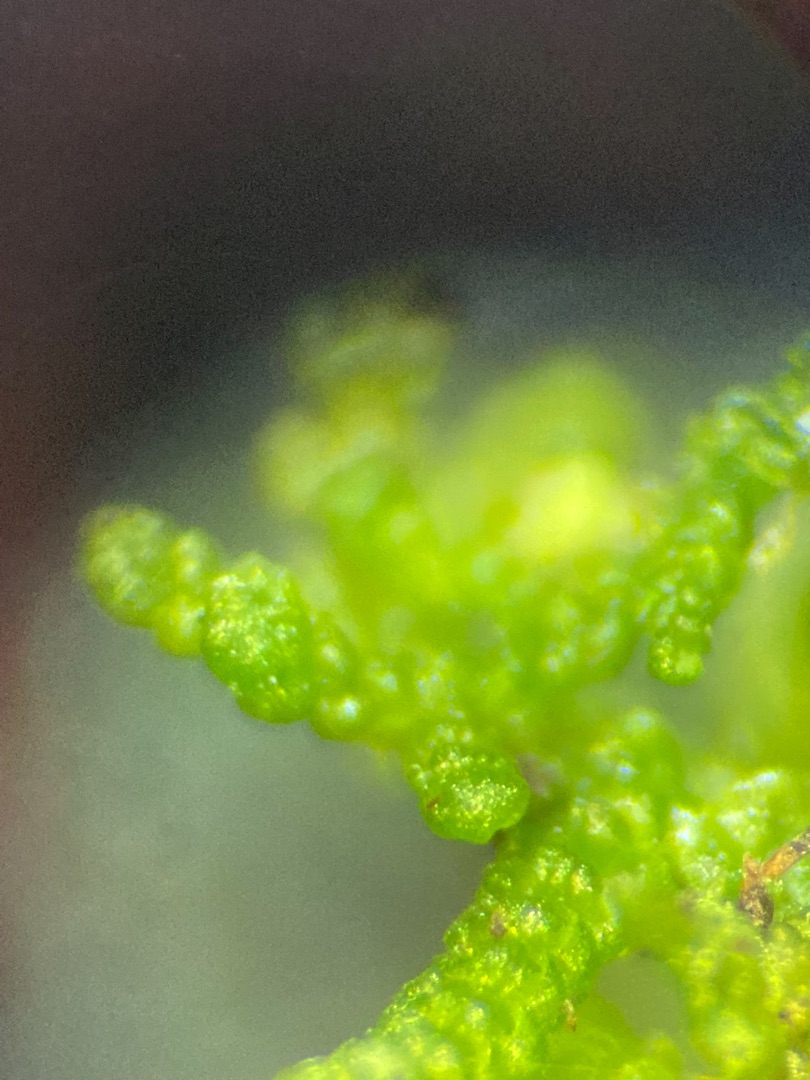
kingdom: Plantae
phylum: Marchantiophyta
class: Jungermanniopsida
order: Jungermanniales
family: Lepidoziaceae
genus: Lepidozia
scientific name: Lepidozia reptans
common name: Krybende fingermos
